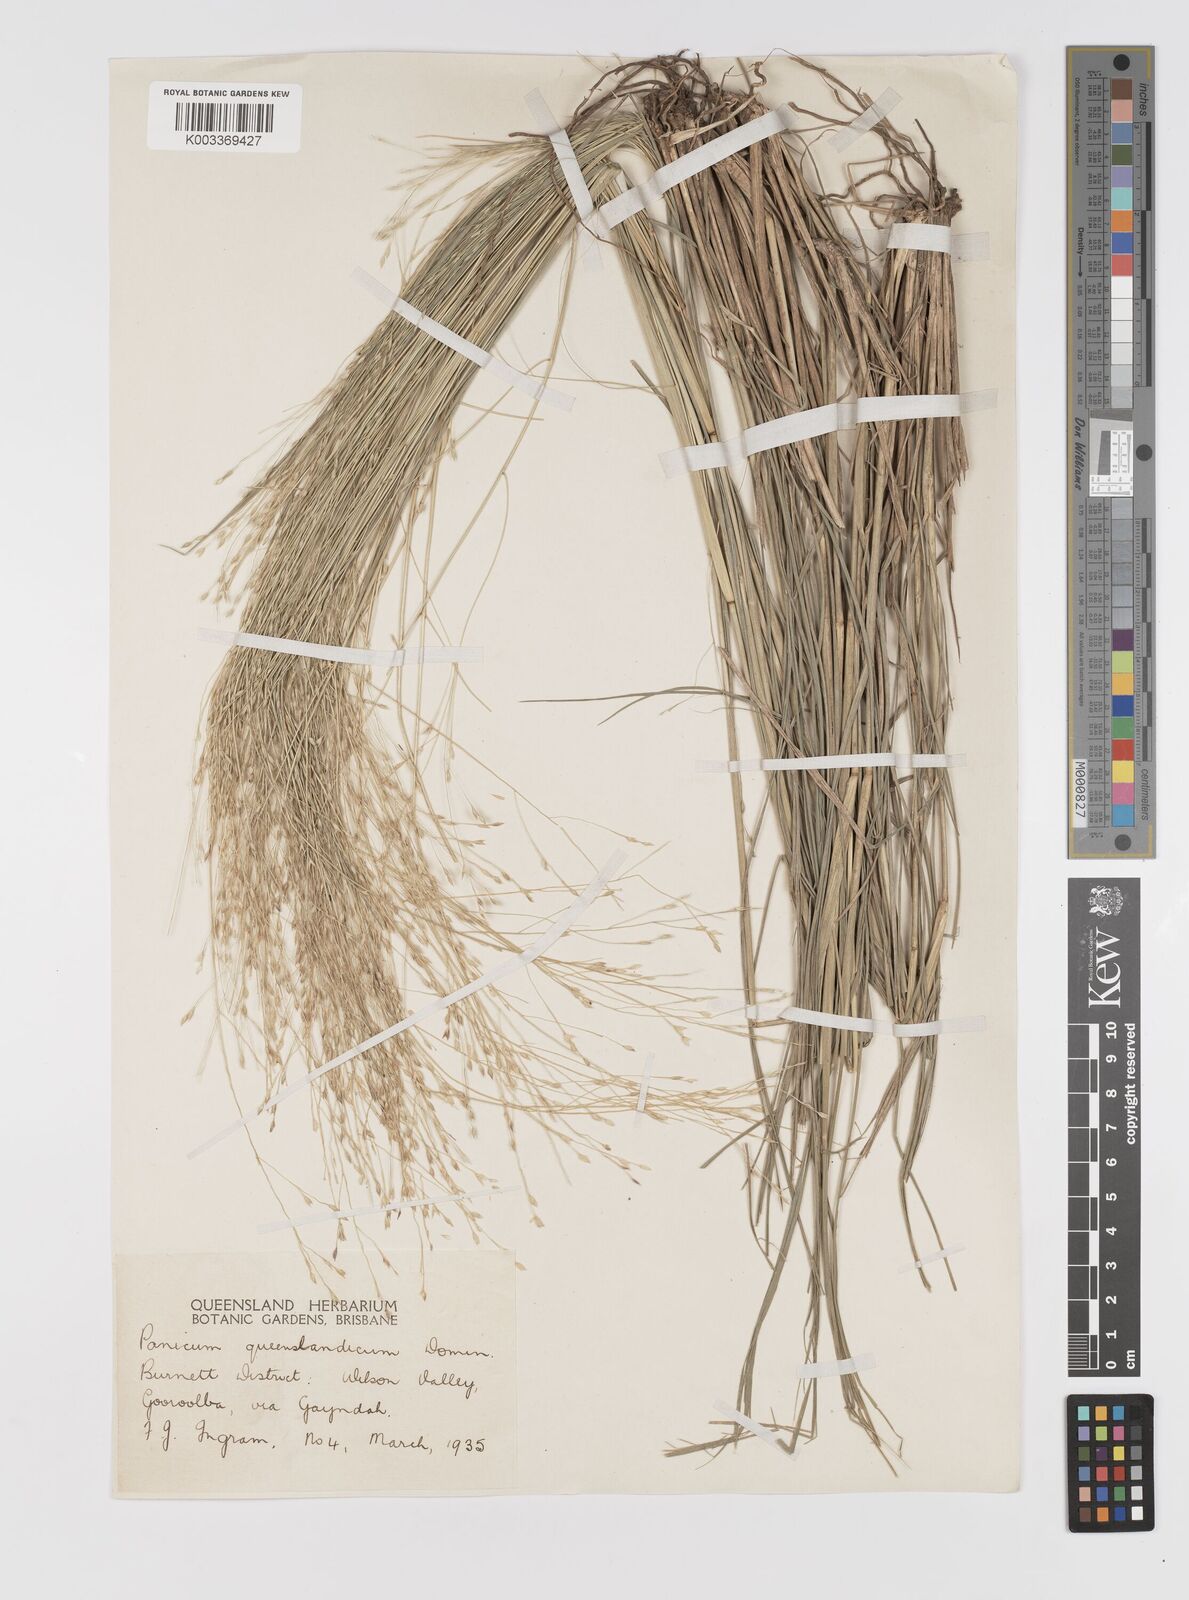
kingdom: Plantae
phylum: Tracheophyta
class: Liliopsida
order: Poales
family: Poaceae
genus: Panicum
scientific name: Panicum queenslandicum
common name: Yabila grass
